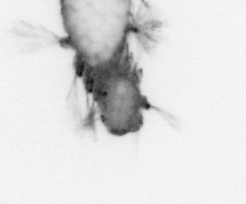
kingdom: Animalia
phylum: Annelida
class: Polychaeta
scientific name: Polychaeta
